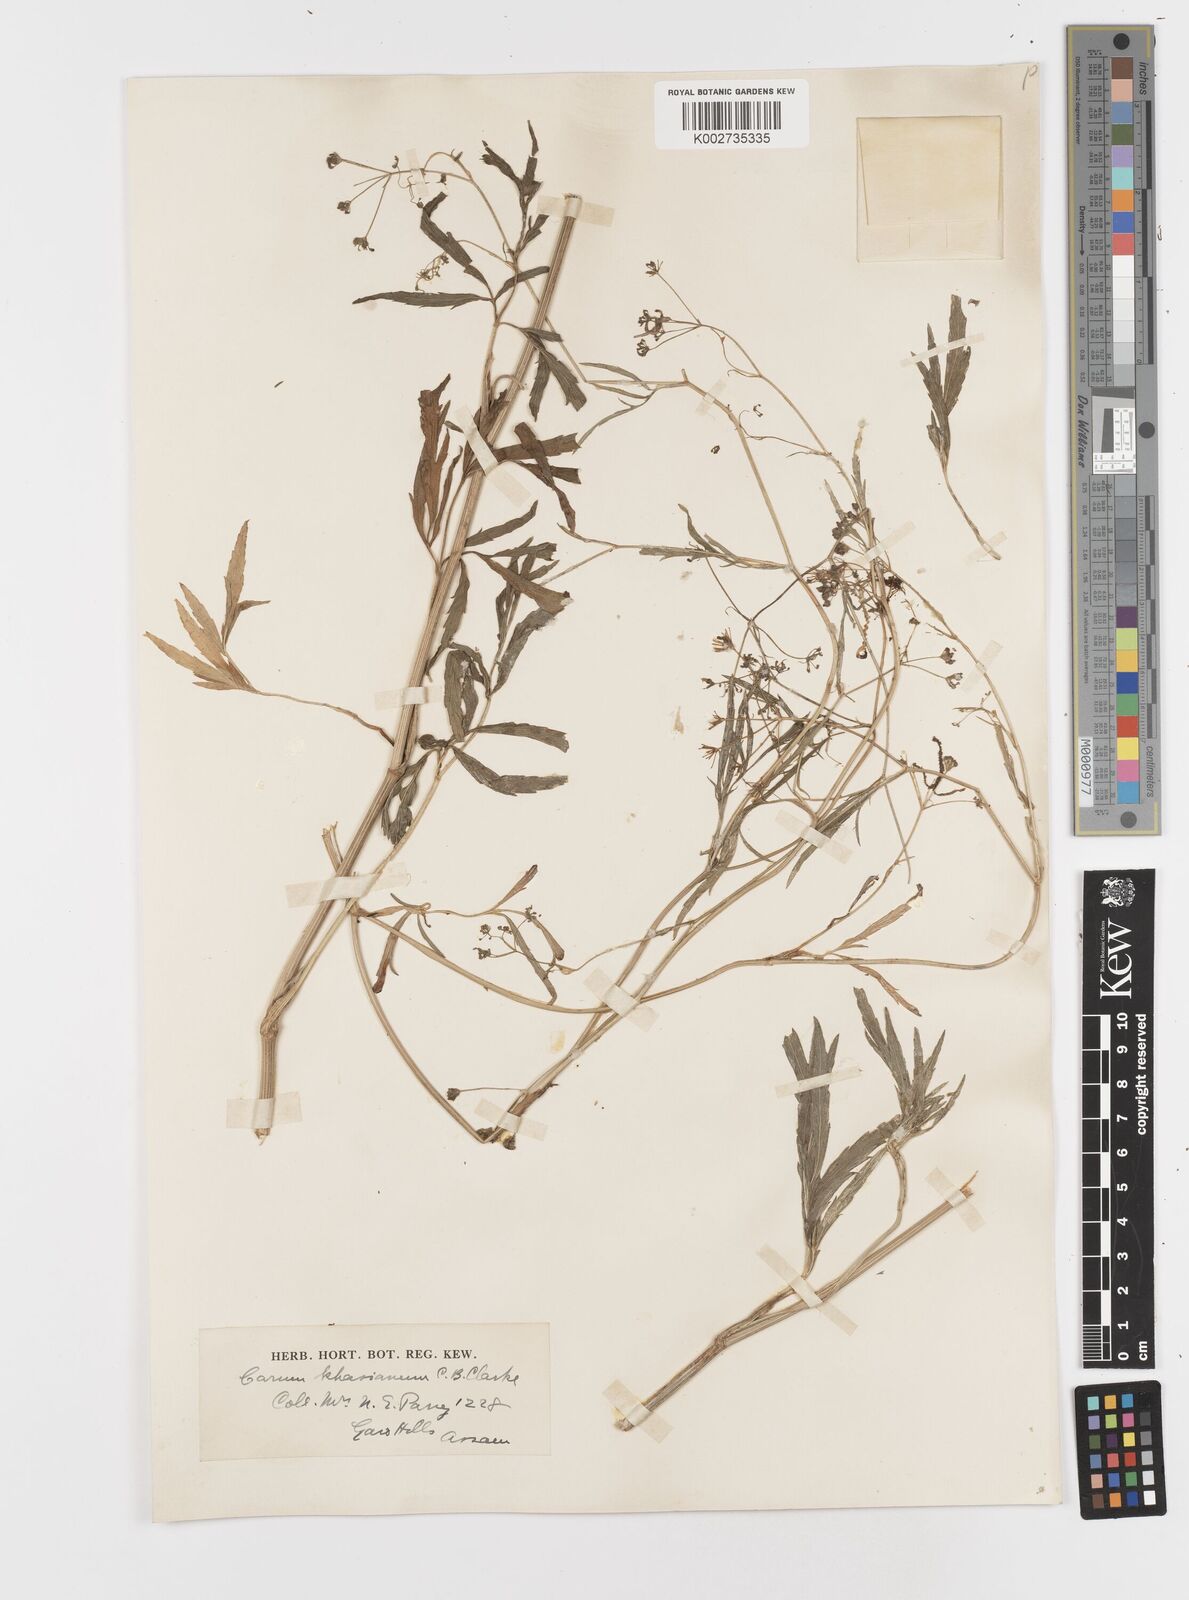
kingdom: Plantae
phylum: Tracheophyta
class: Magnoliopsida
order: Apiales
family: Apiaceae
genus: Trachyspermum
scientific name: Trachyspermum khasianum
